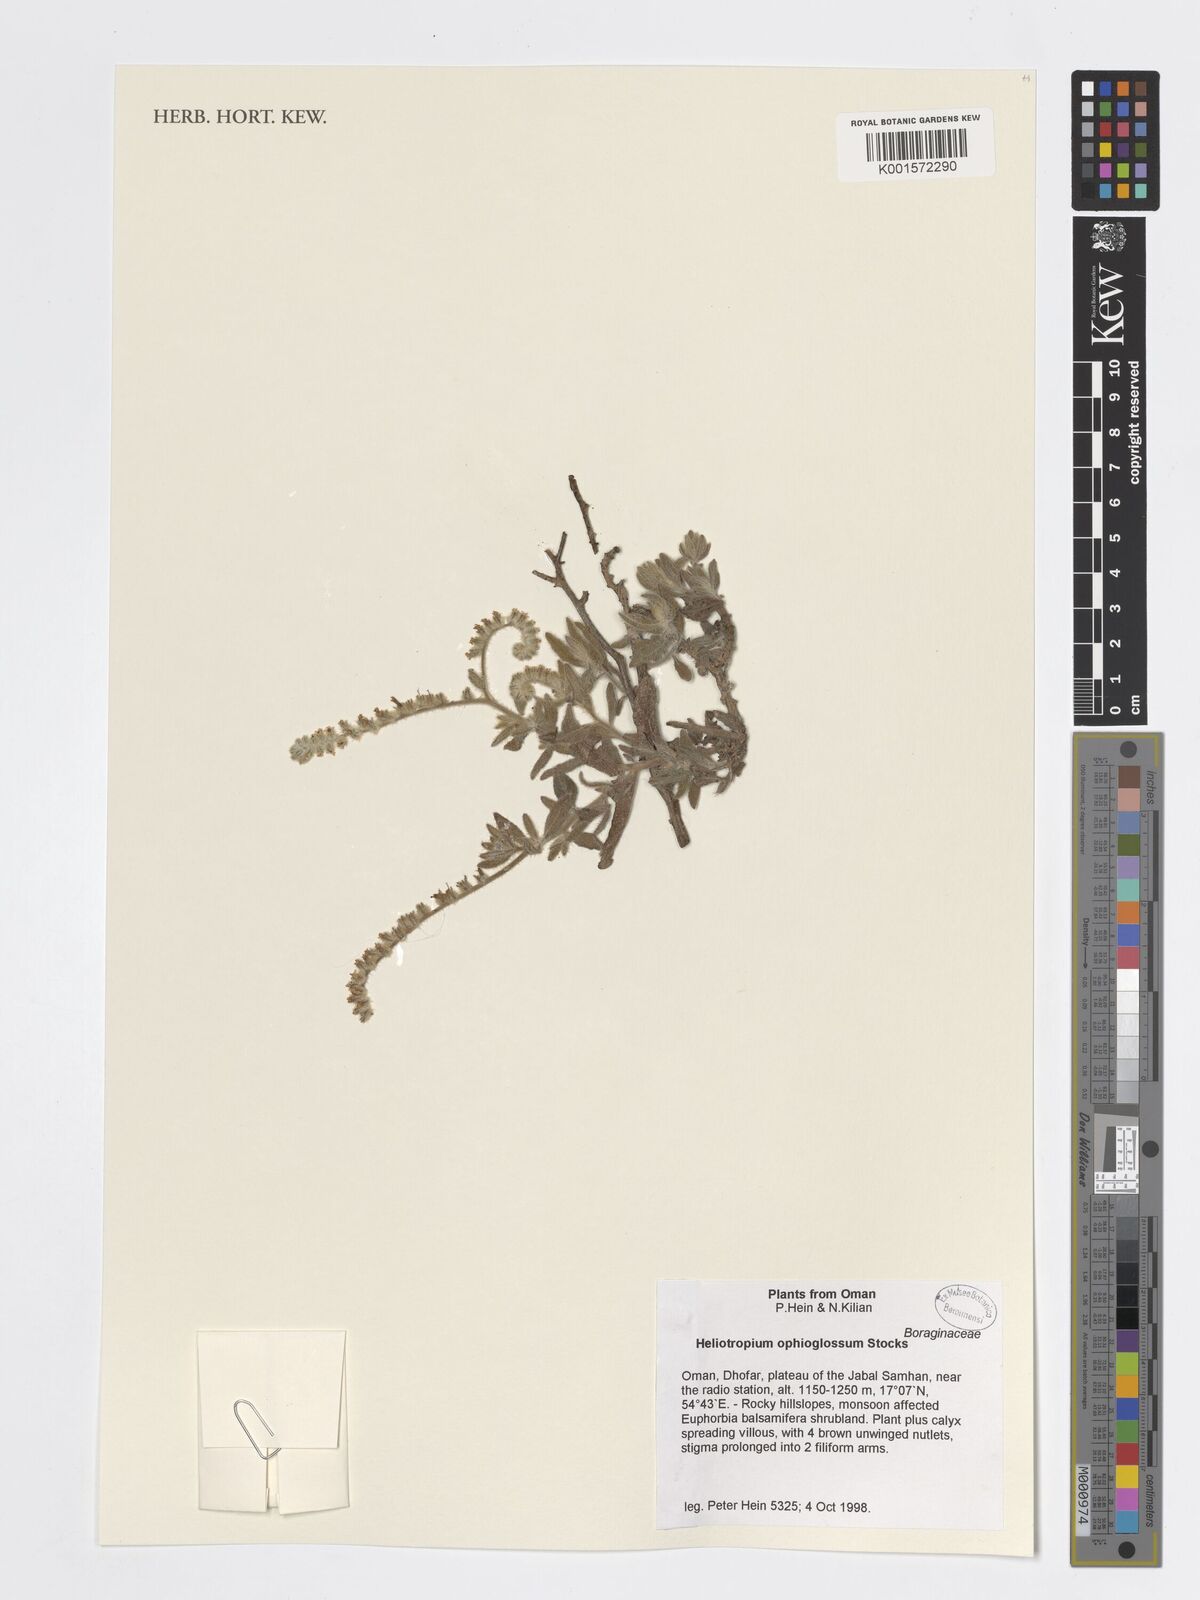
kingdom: Plantae
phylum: Tracheophyta
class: Magnoliopsida
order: Boraginales
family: Heliotropiaceae
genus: Heliotropium
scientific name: Heliotropium ophioglossum
